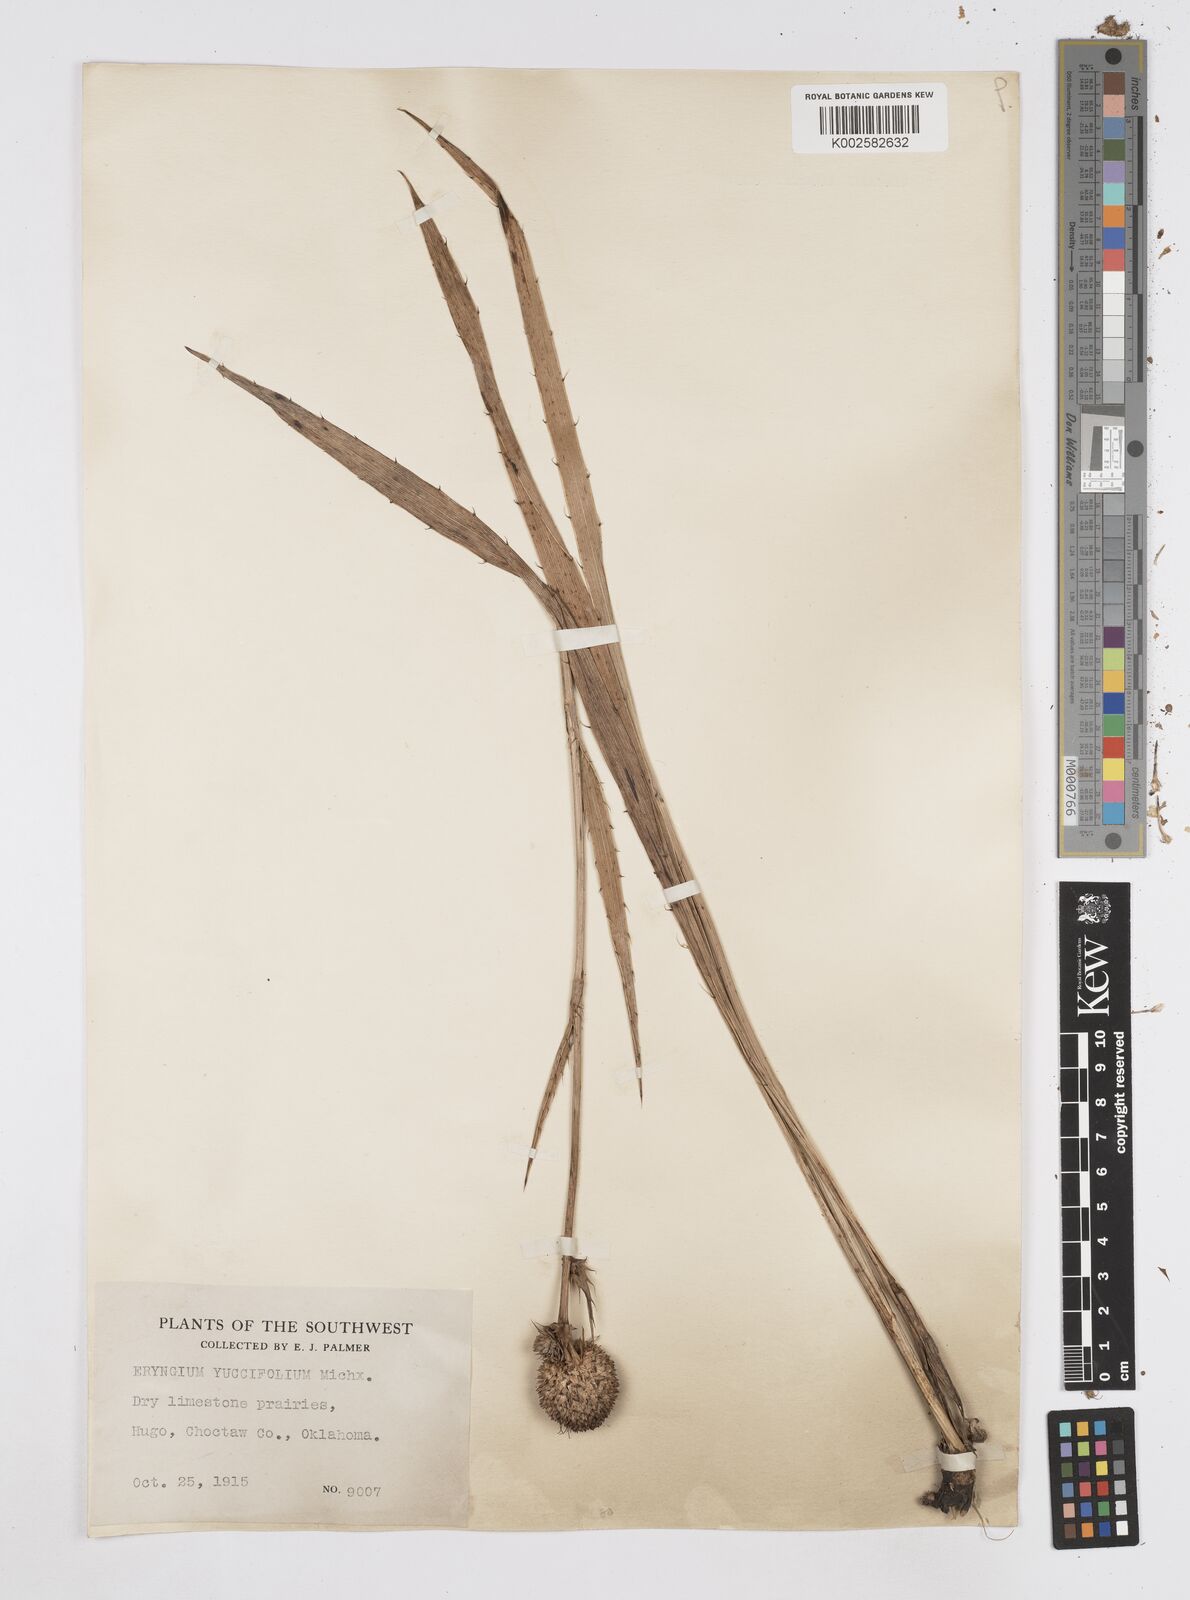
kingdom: Plantae
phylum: Tracheophyta
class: Magnoliopsida
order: Apiales
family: Apiaceae
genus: Eryngium
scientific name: Eryngium yuccifolium
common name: Button eryngo
